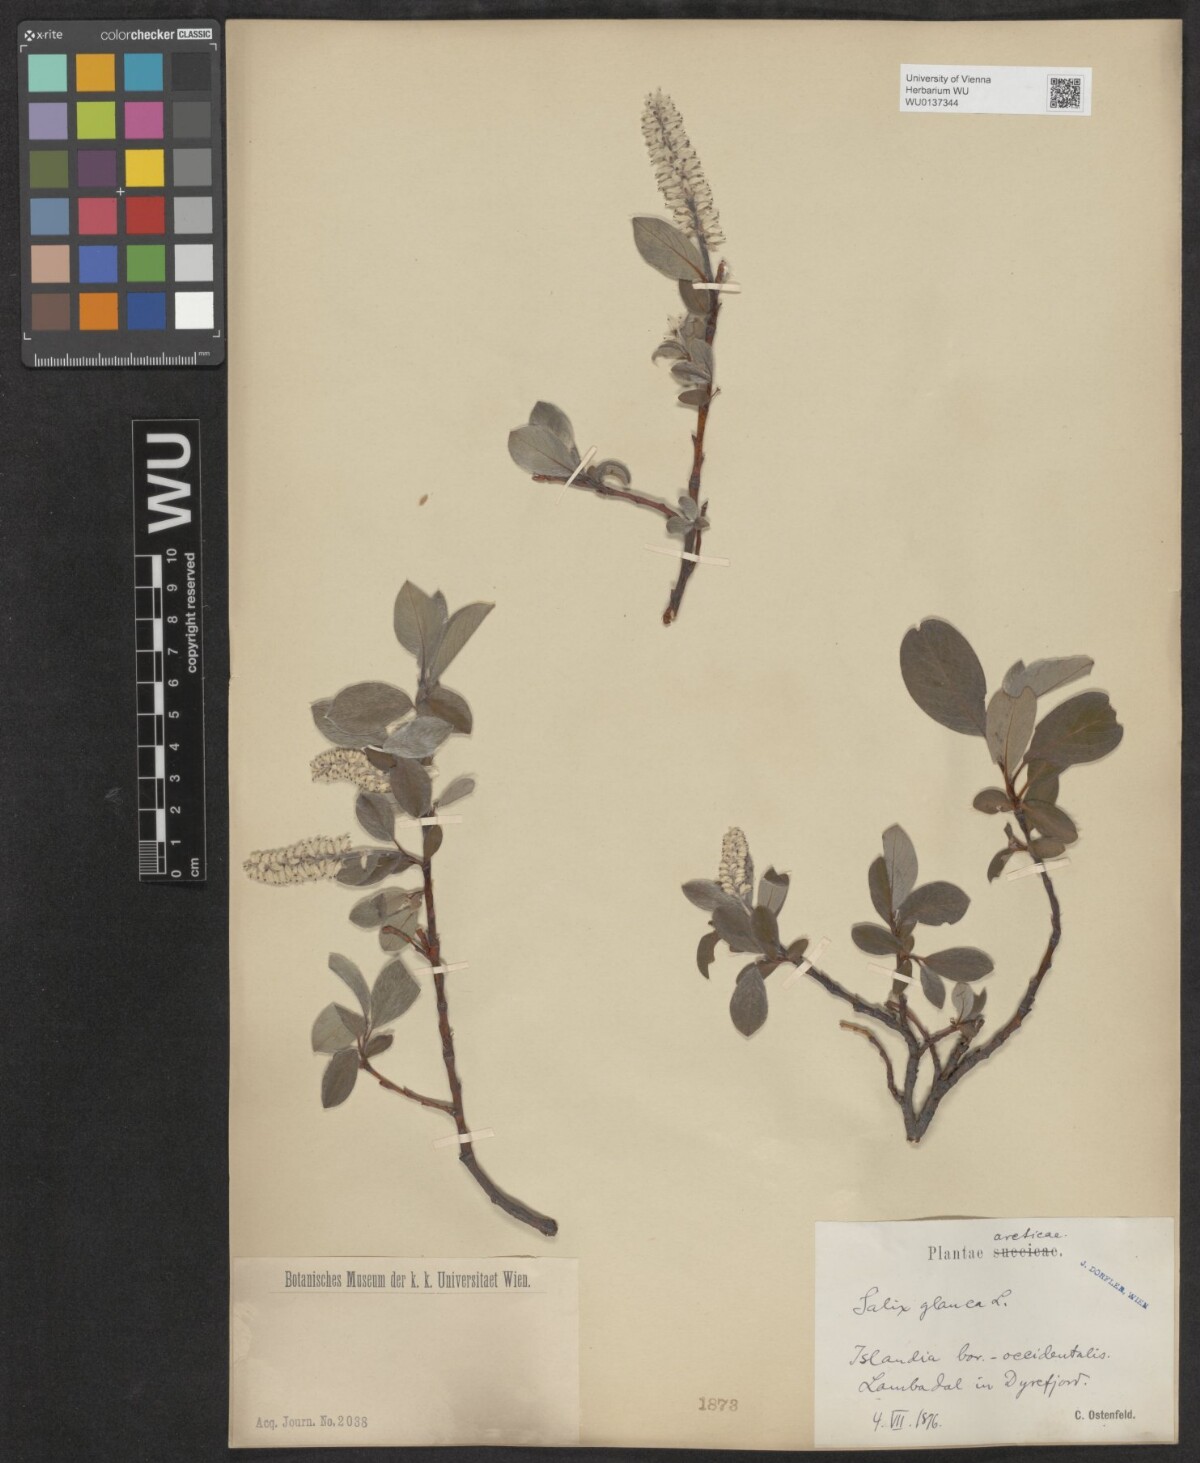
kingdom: Plantae
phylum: Tracheophyta
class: Magnoliopsida
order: Malpighiales
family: Salicaceae
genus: Salix
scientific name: Salix glauca
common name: Glaucous willow
